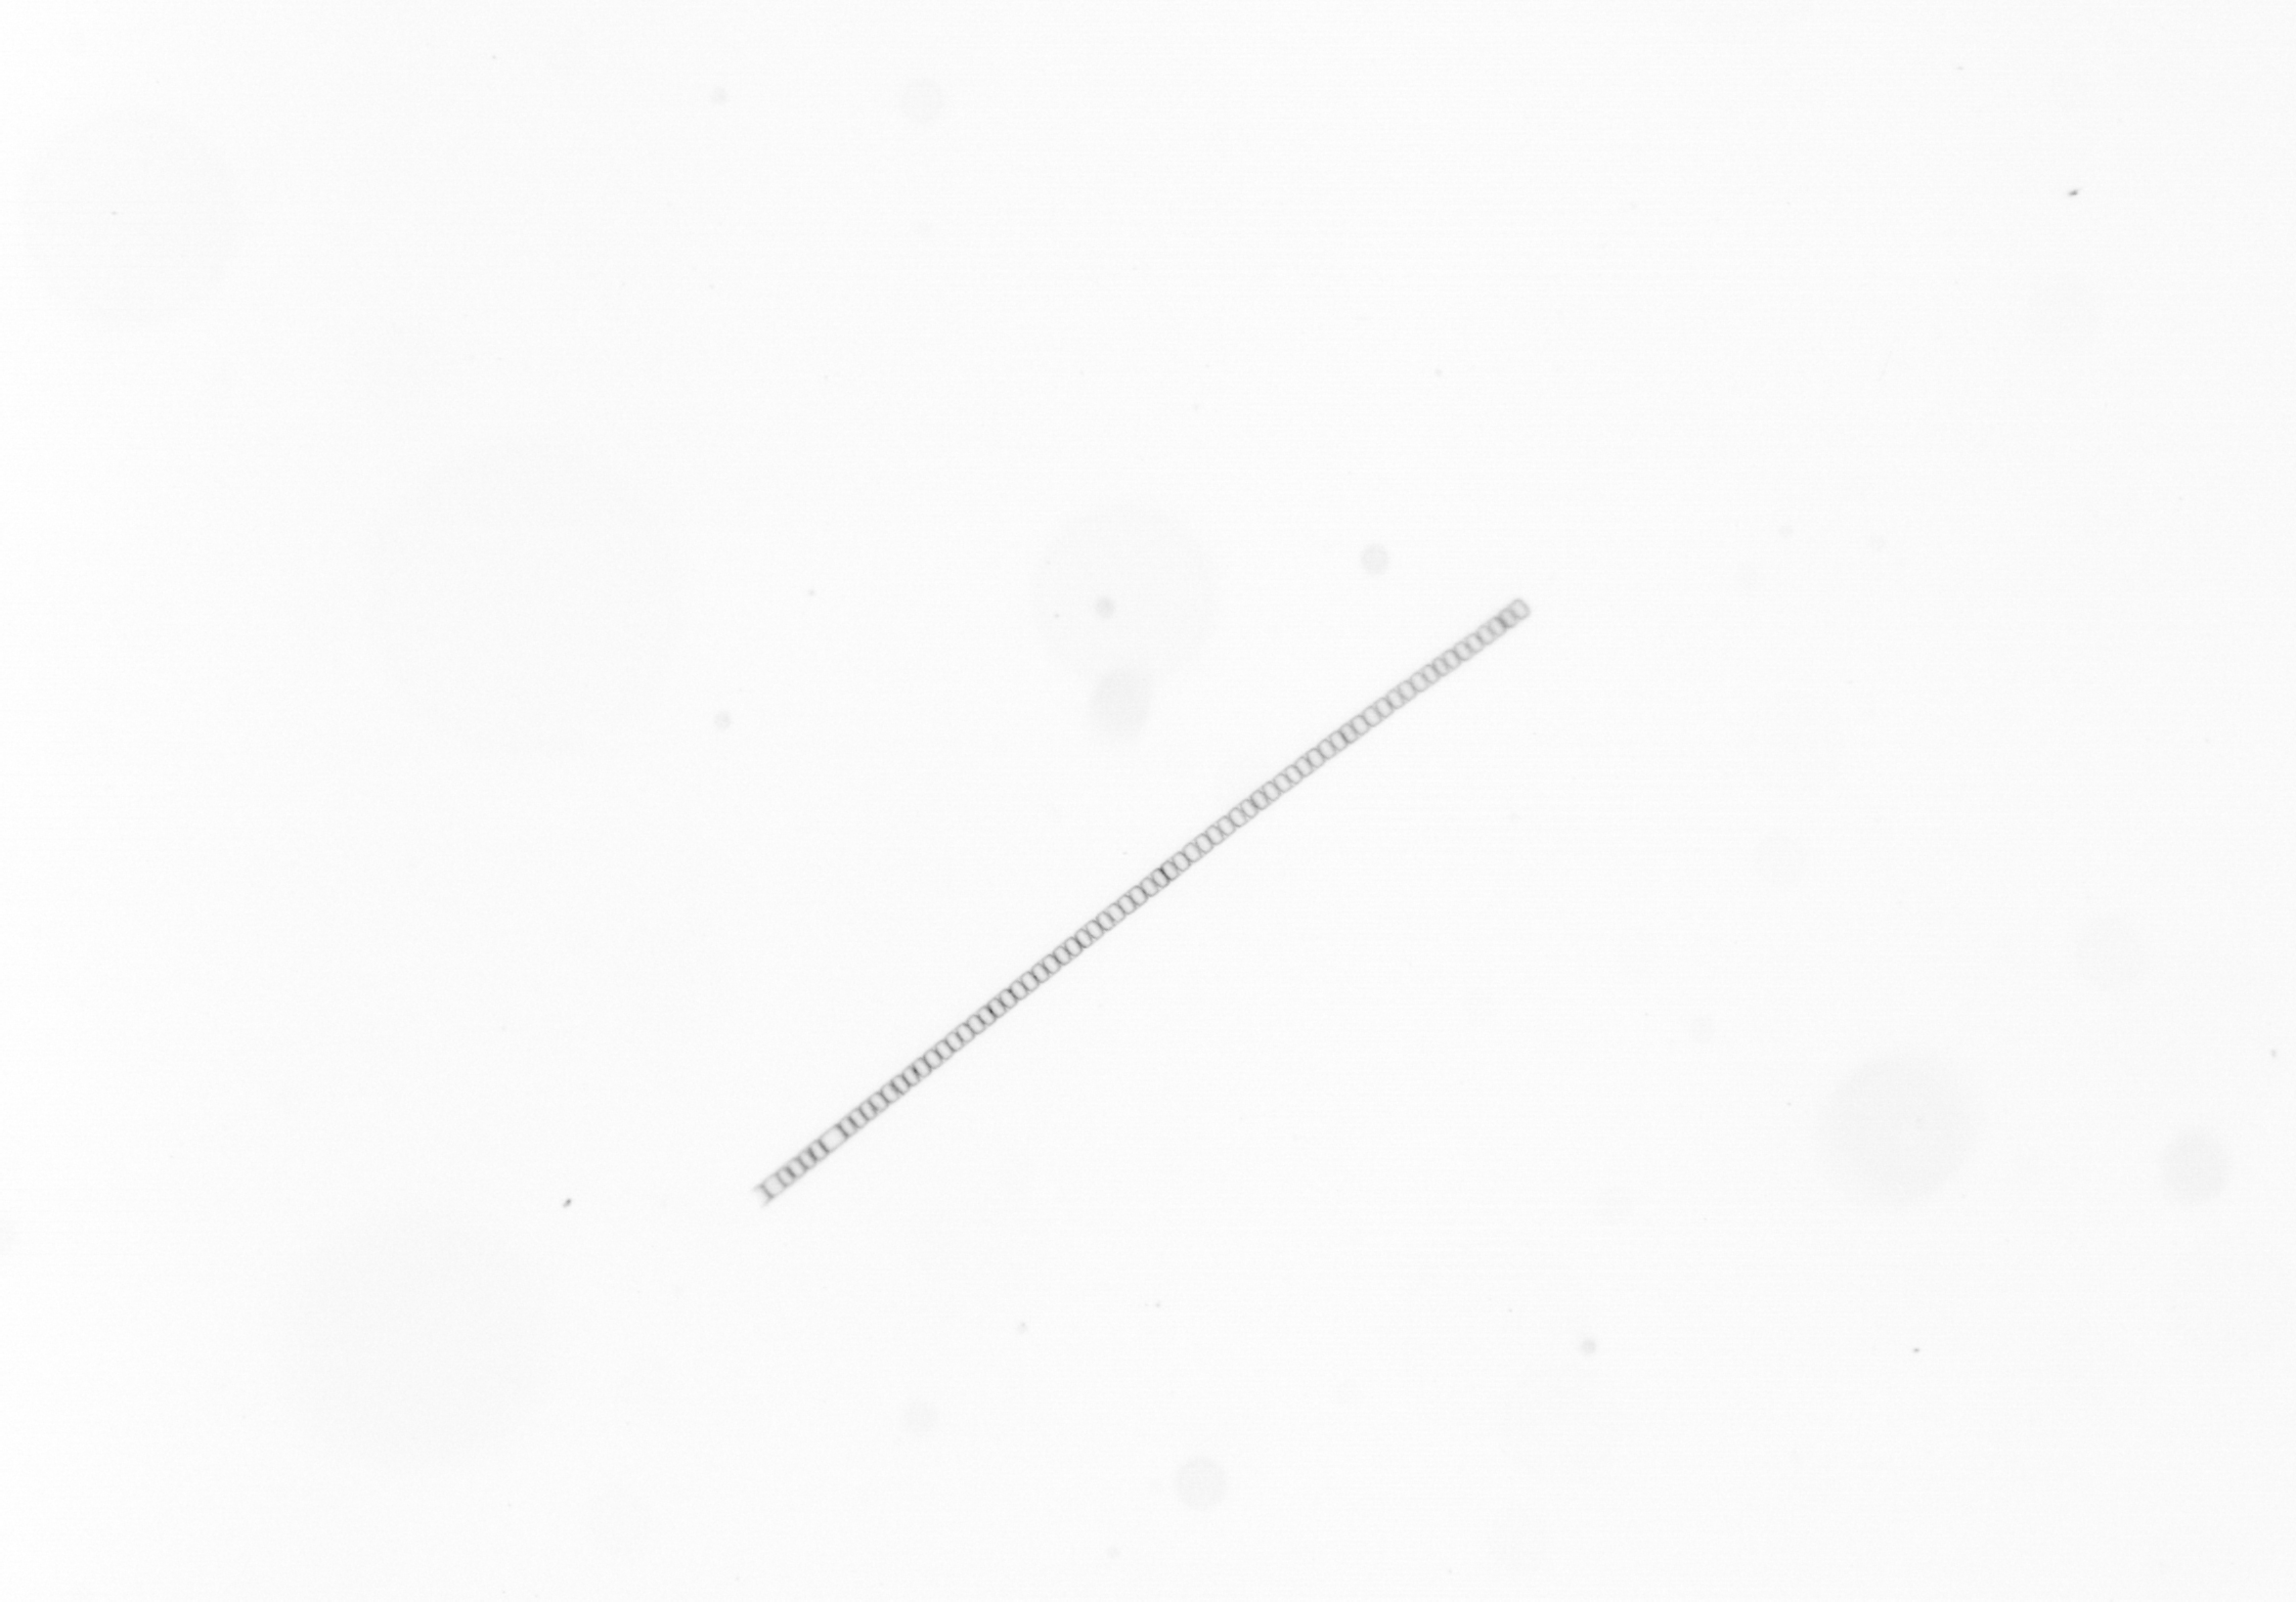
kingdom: Chromista
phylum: Ochrophyta
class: Bacillariophyceae
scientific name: Bacillariophyceae
